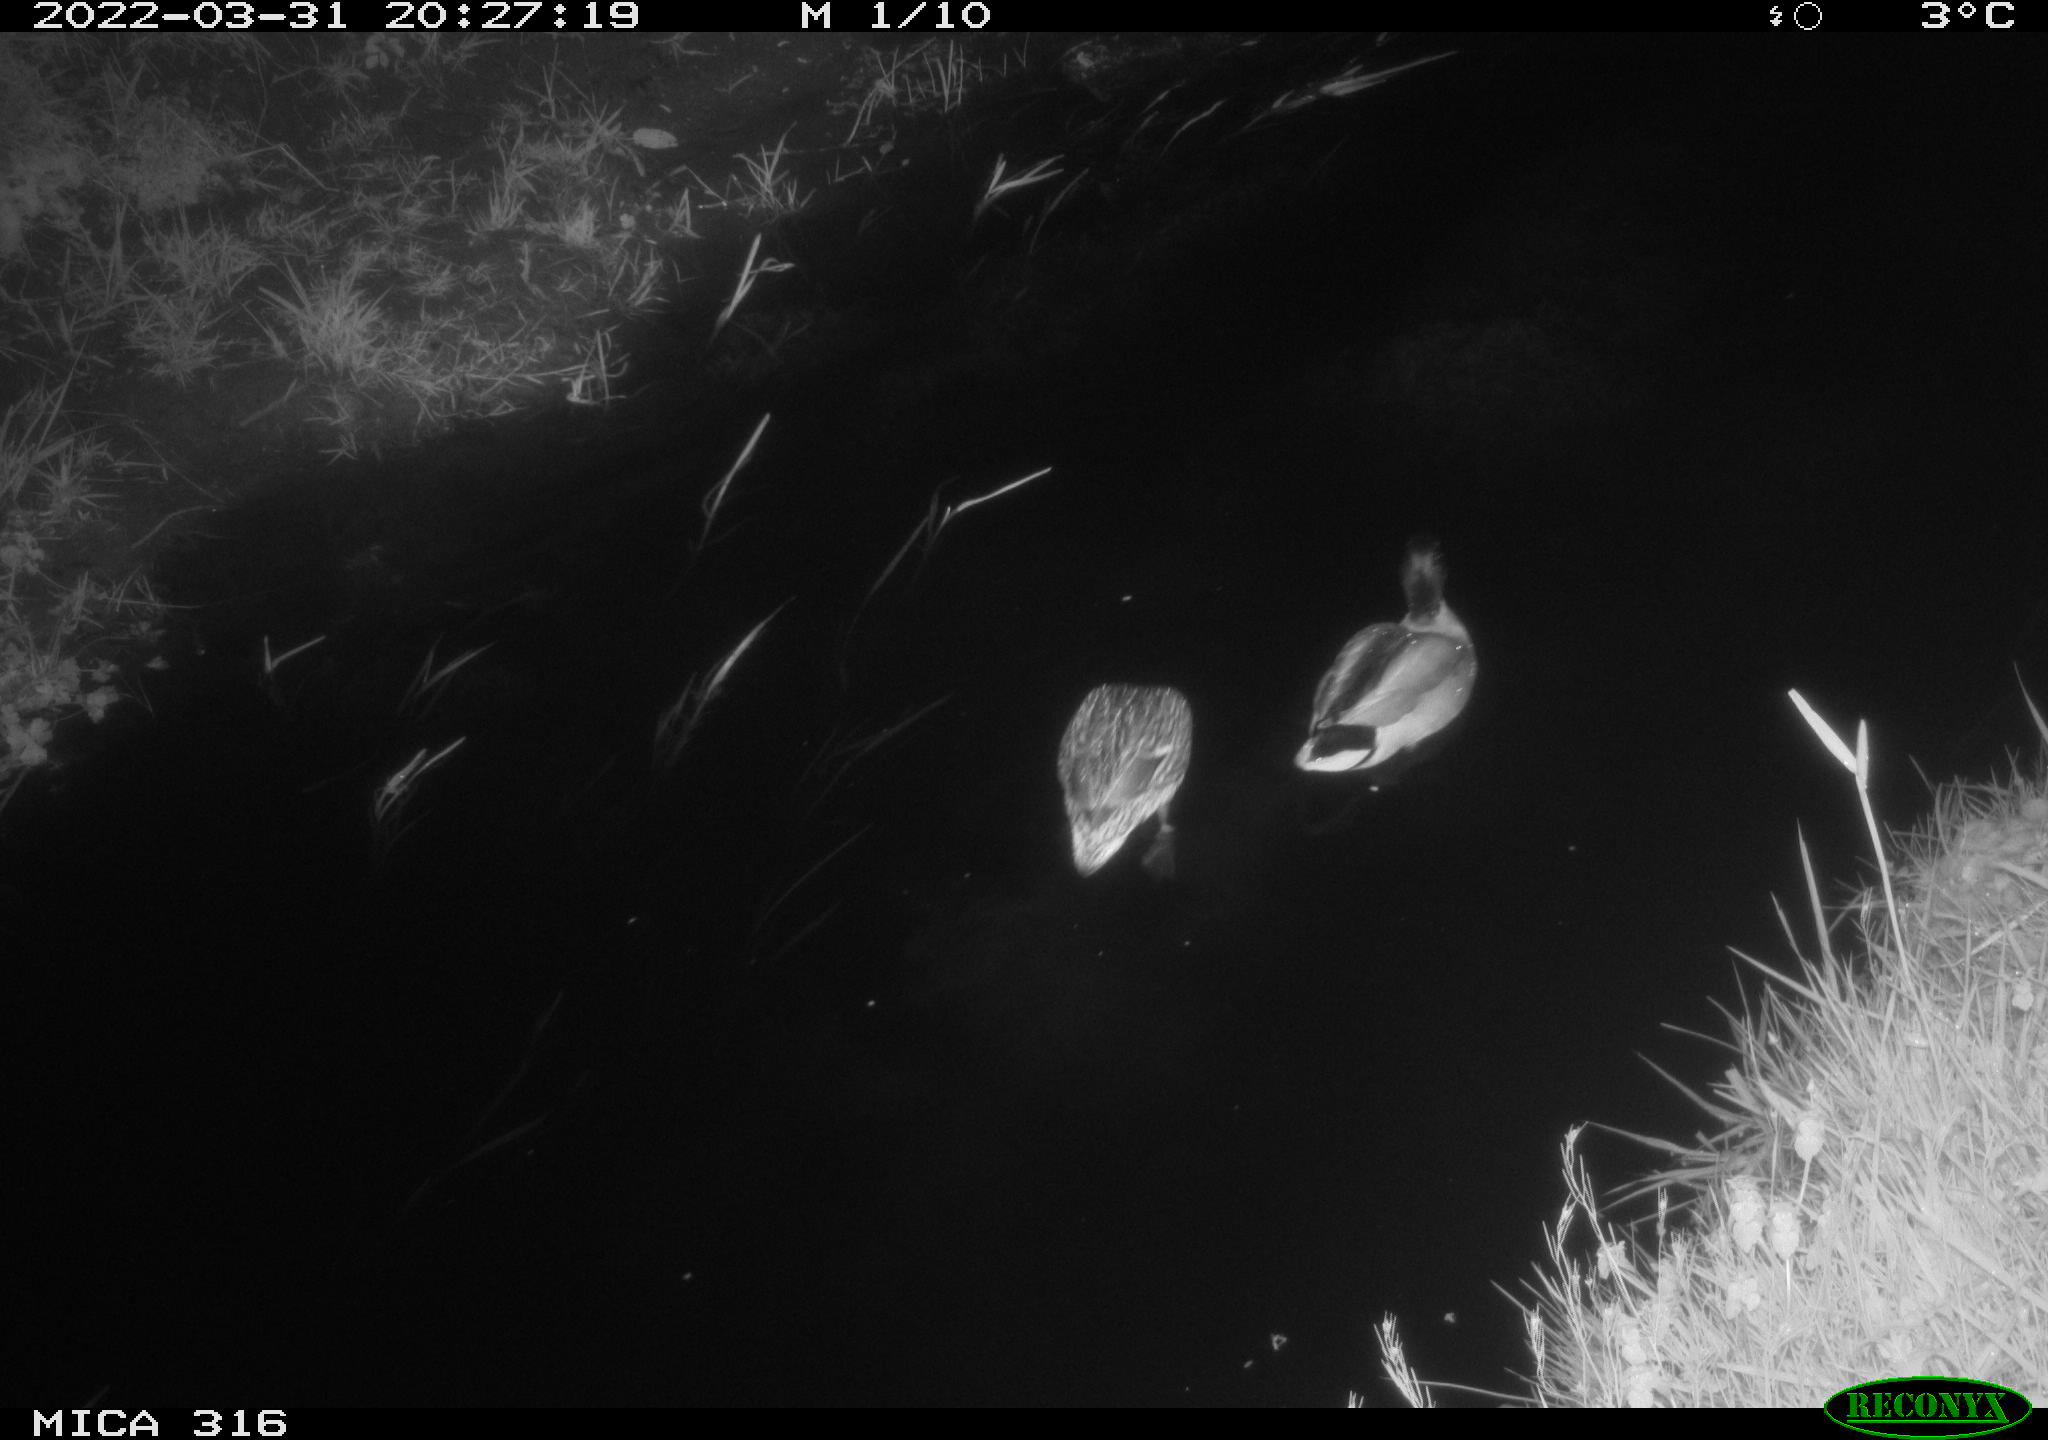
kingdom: Animalia
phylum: Chordata
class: Aves
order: Anseriformes
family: Anatidae
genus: Anas
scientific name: Anas platyrhynchos
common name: Mallard
